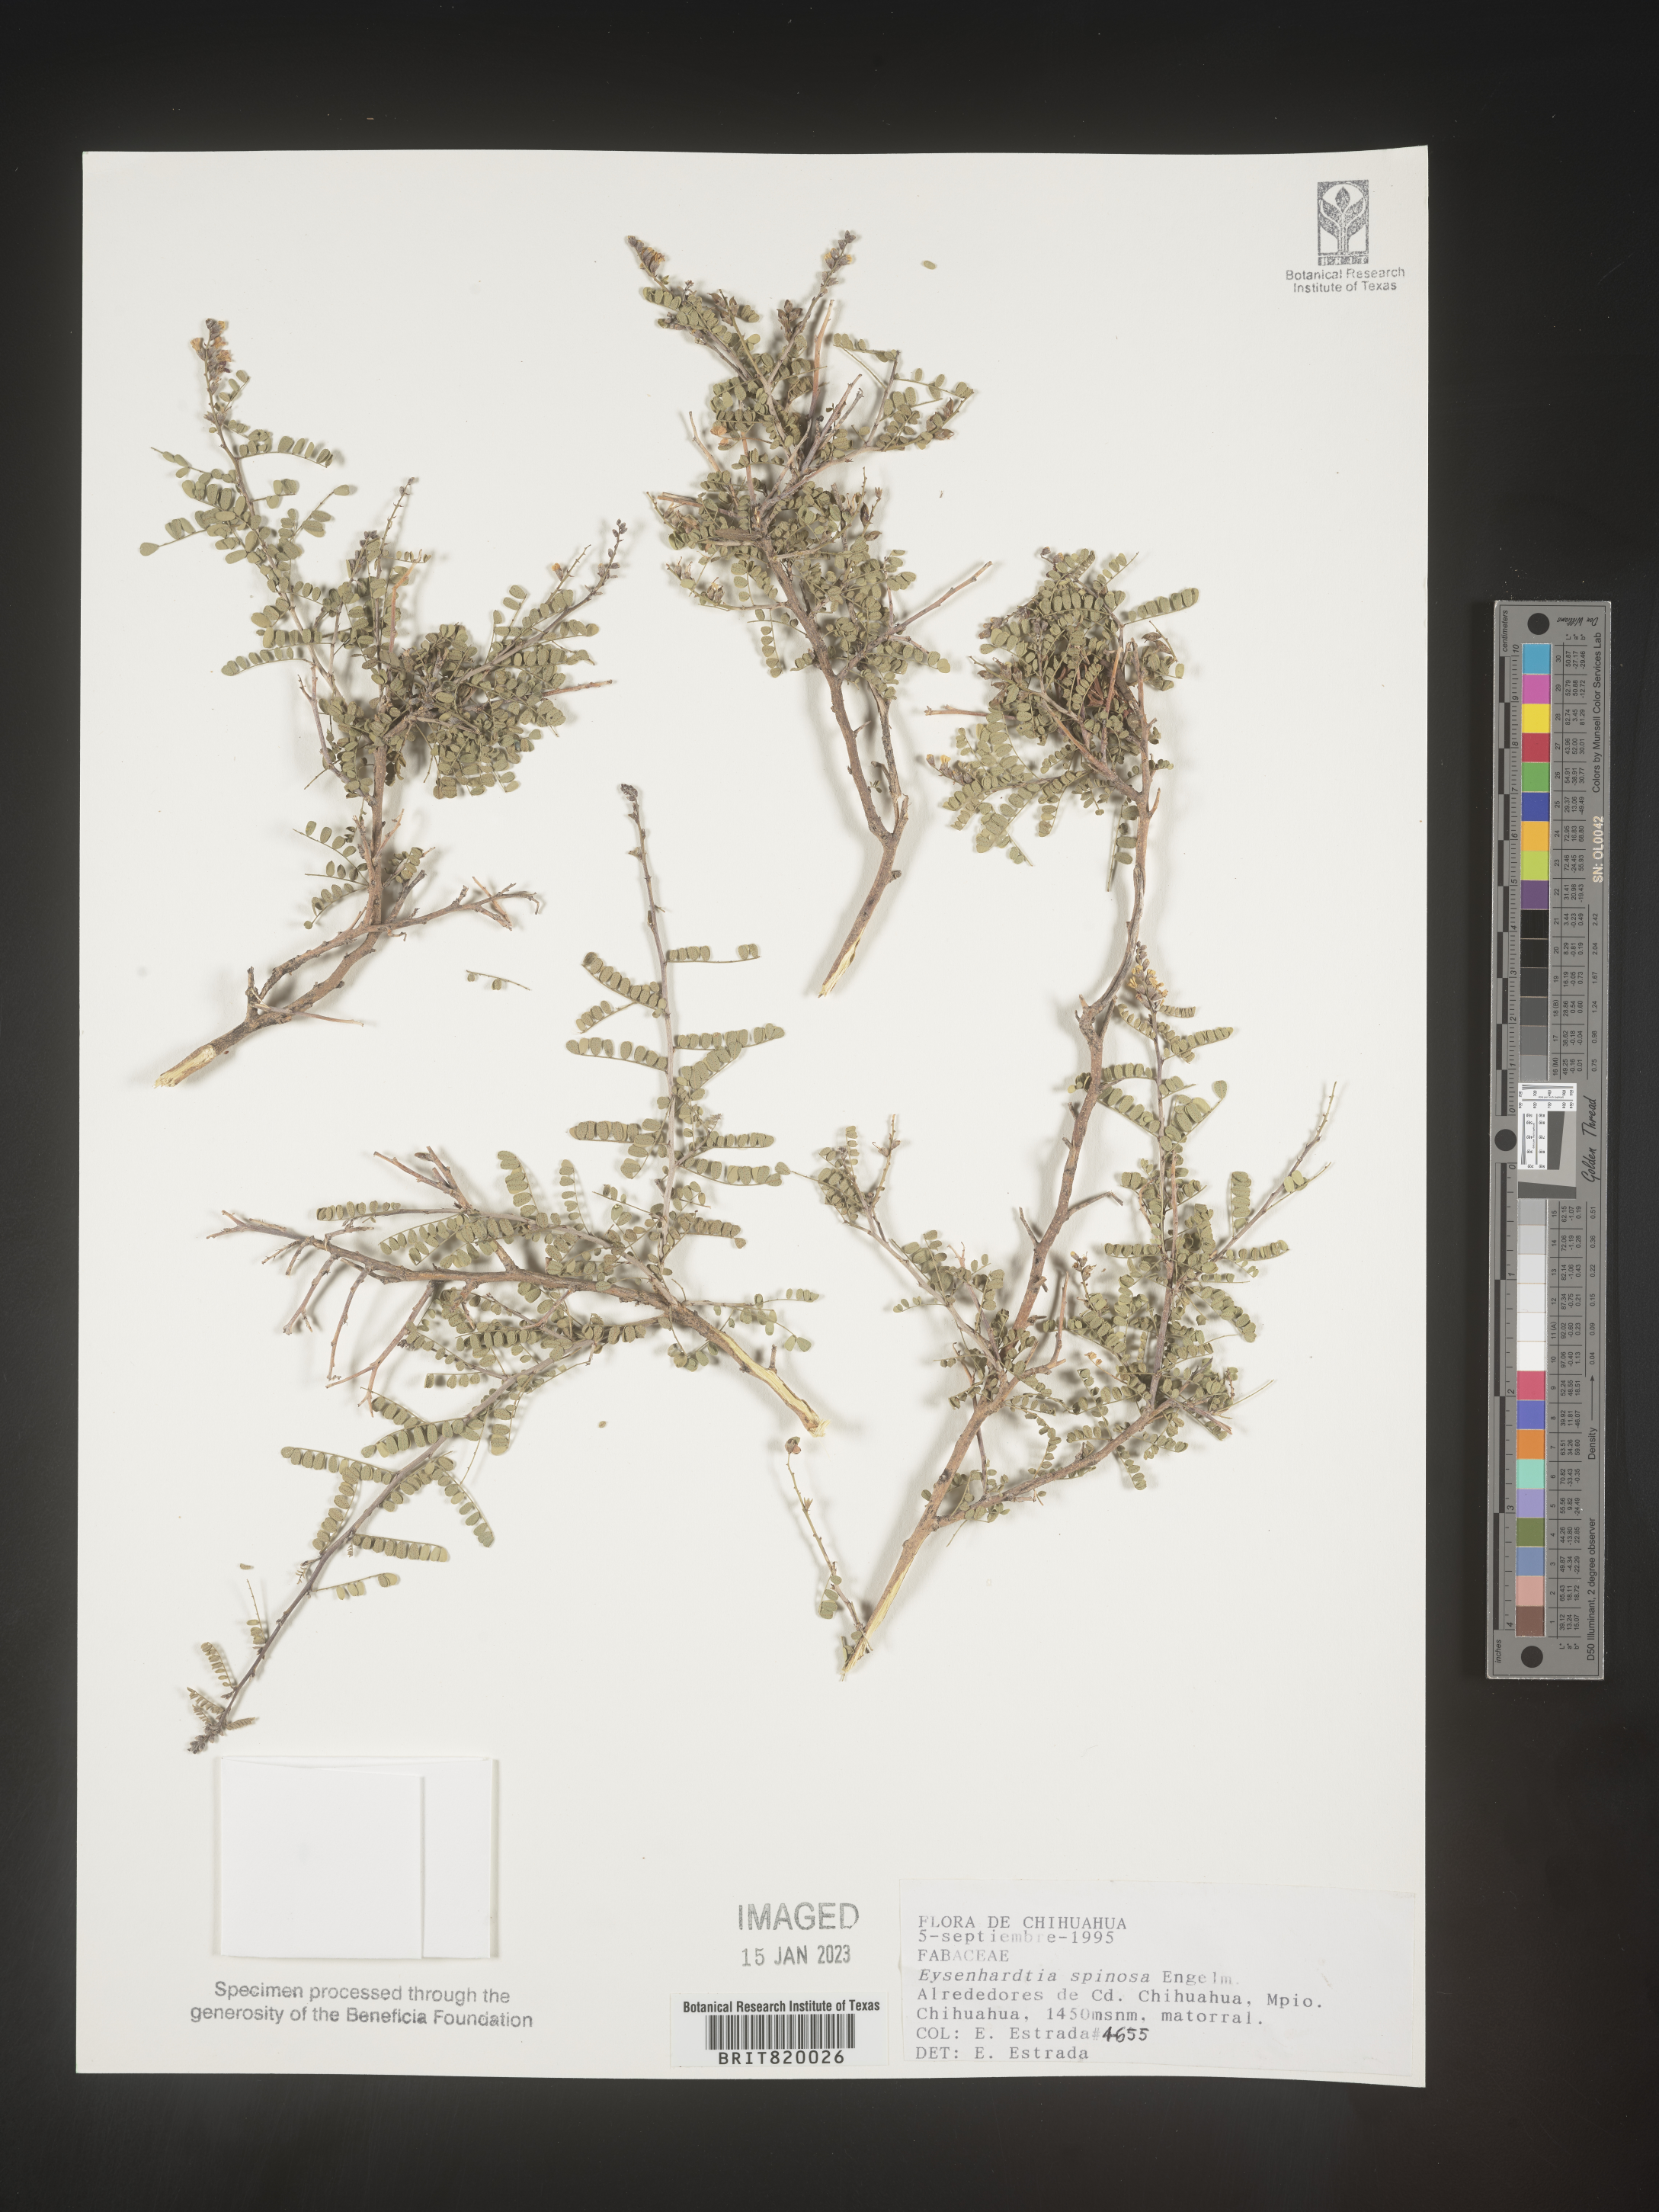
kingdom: Plantae
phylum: Tracheophyta
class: Magnoliopsida
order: Fabales
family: Fabaceae
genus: Eysenhardtia
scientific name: Eysenhardtia
